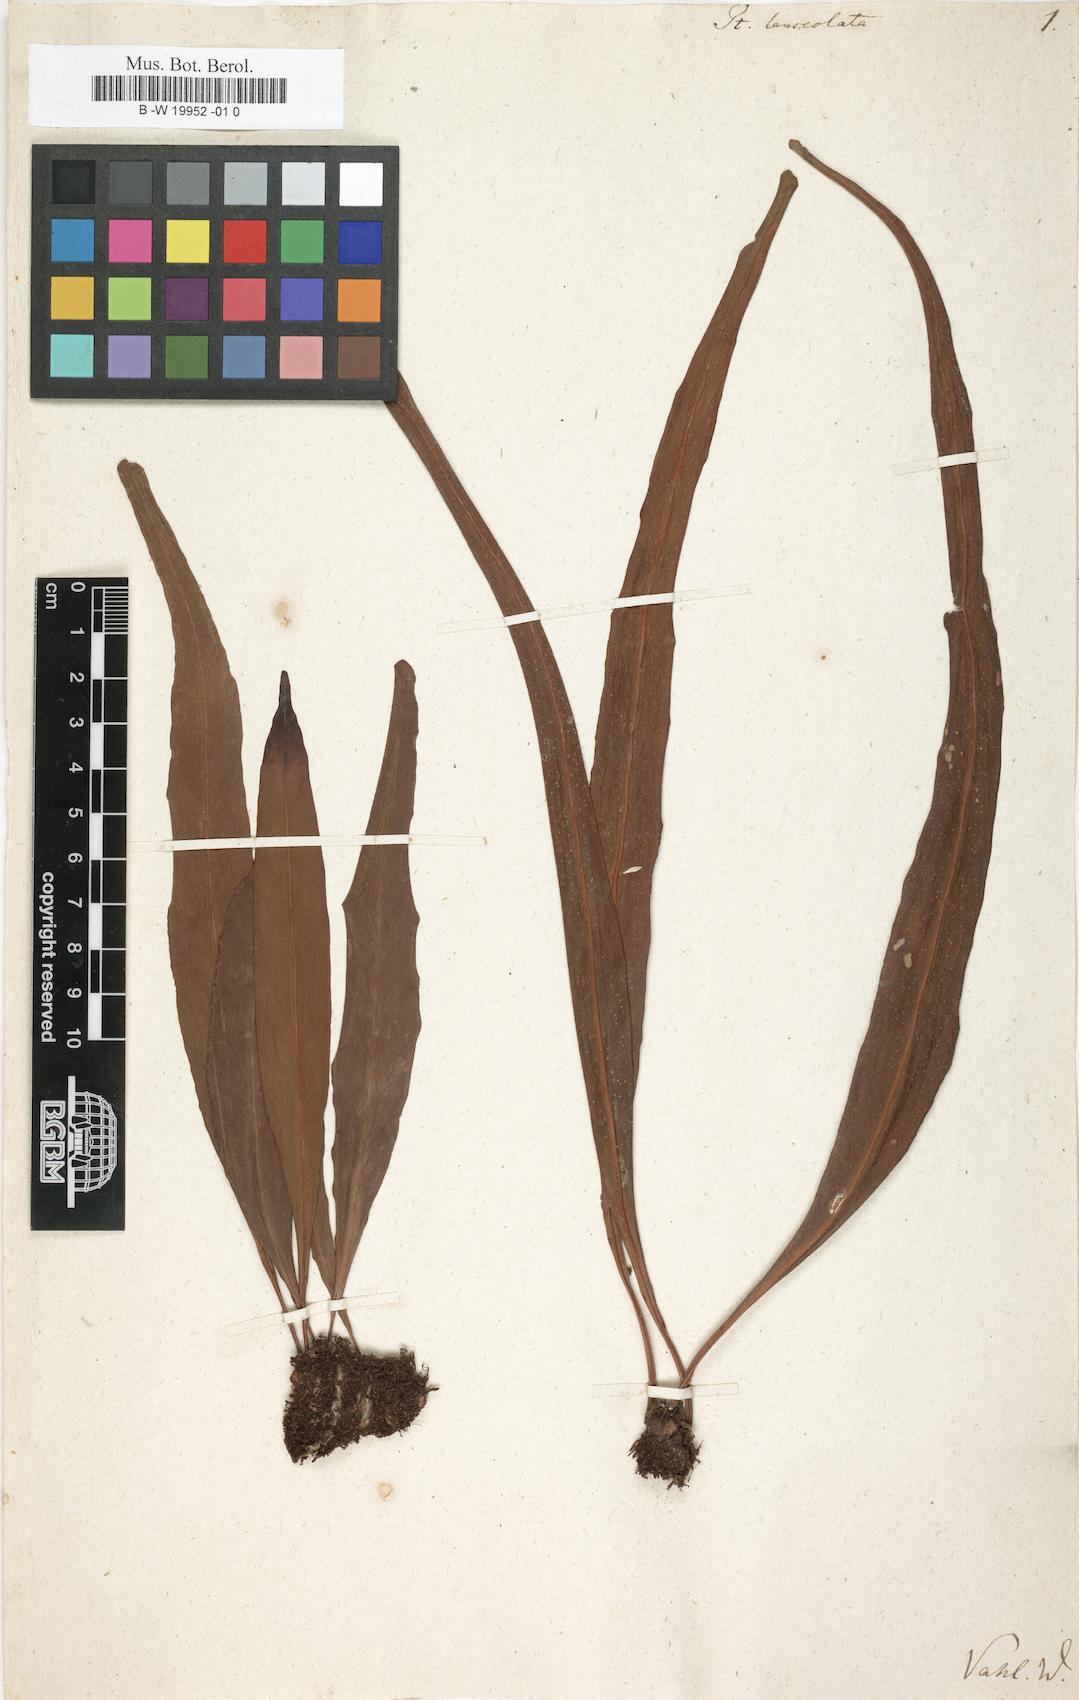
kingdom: Plantae
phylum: Tracheophyta
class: Polypodiopsida
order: Polypodiales
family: Polypodiaceae
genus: Pleopeltis
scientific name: Pleopeltis marginata
